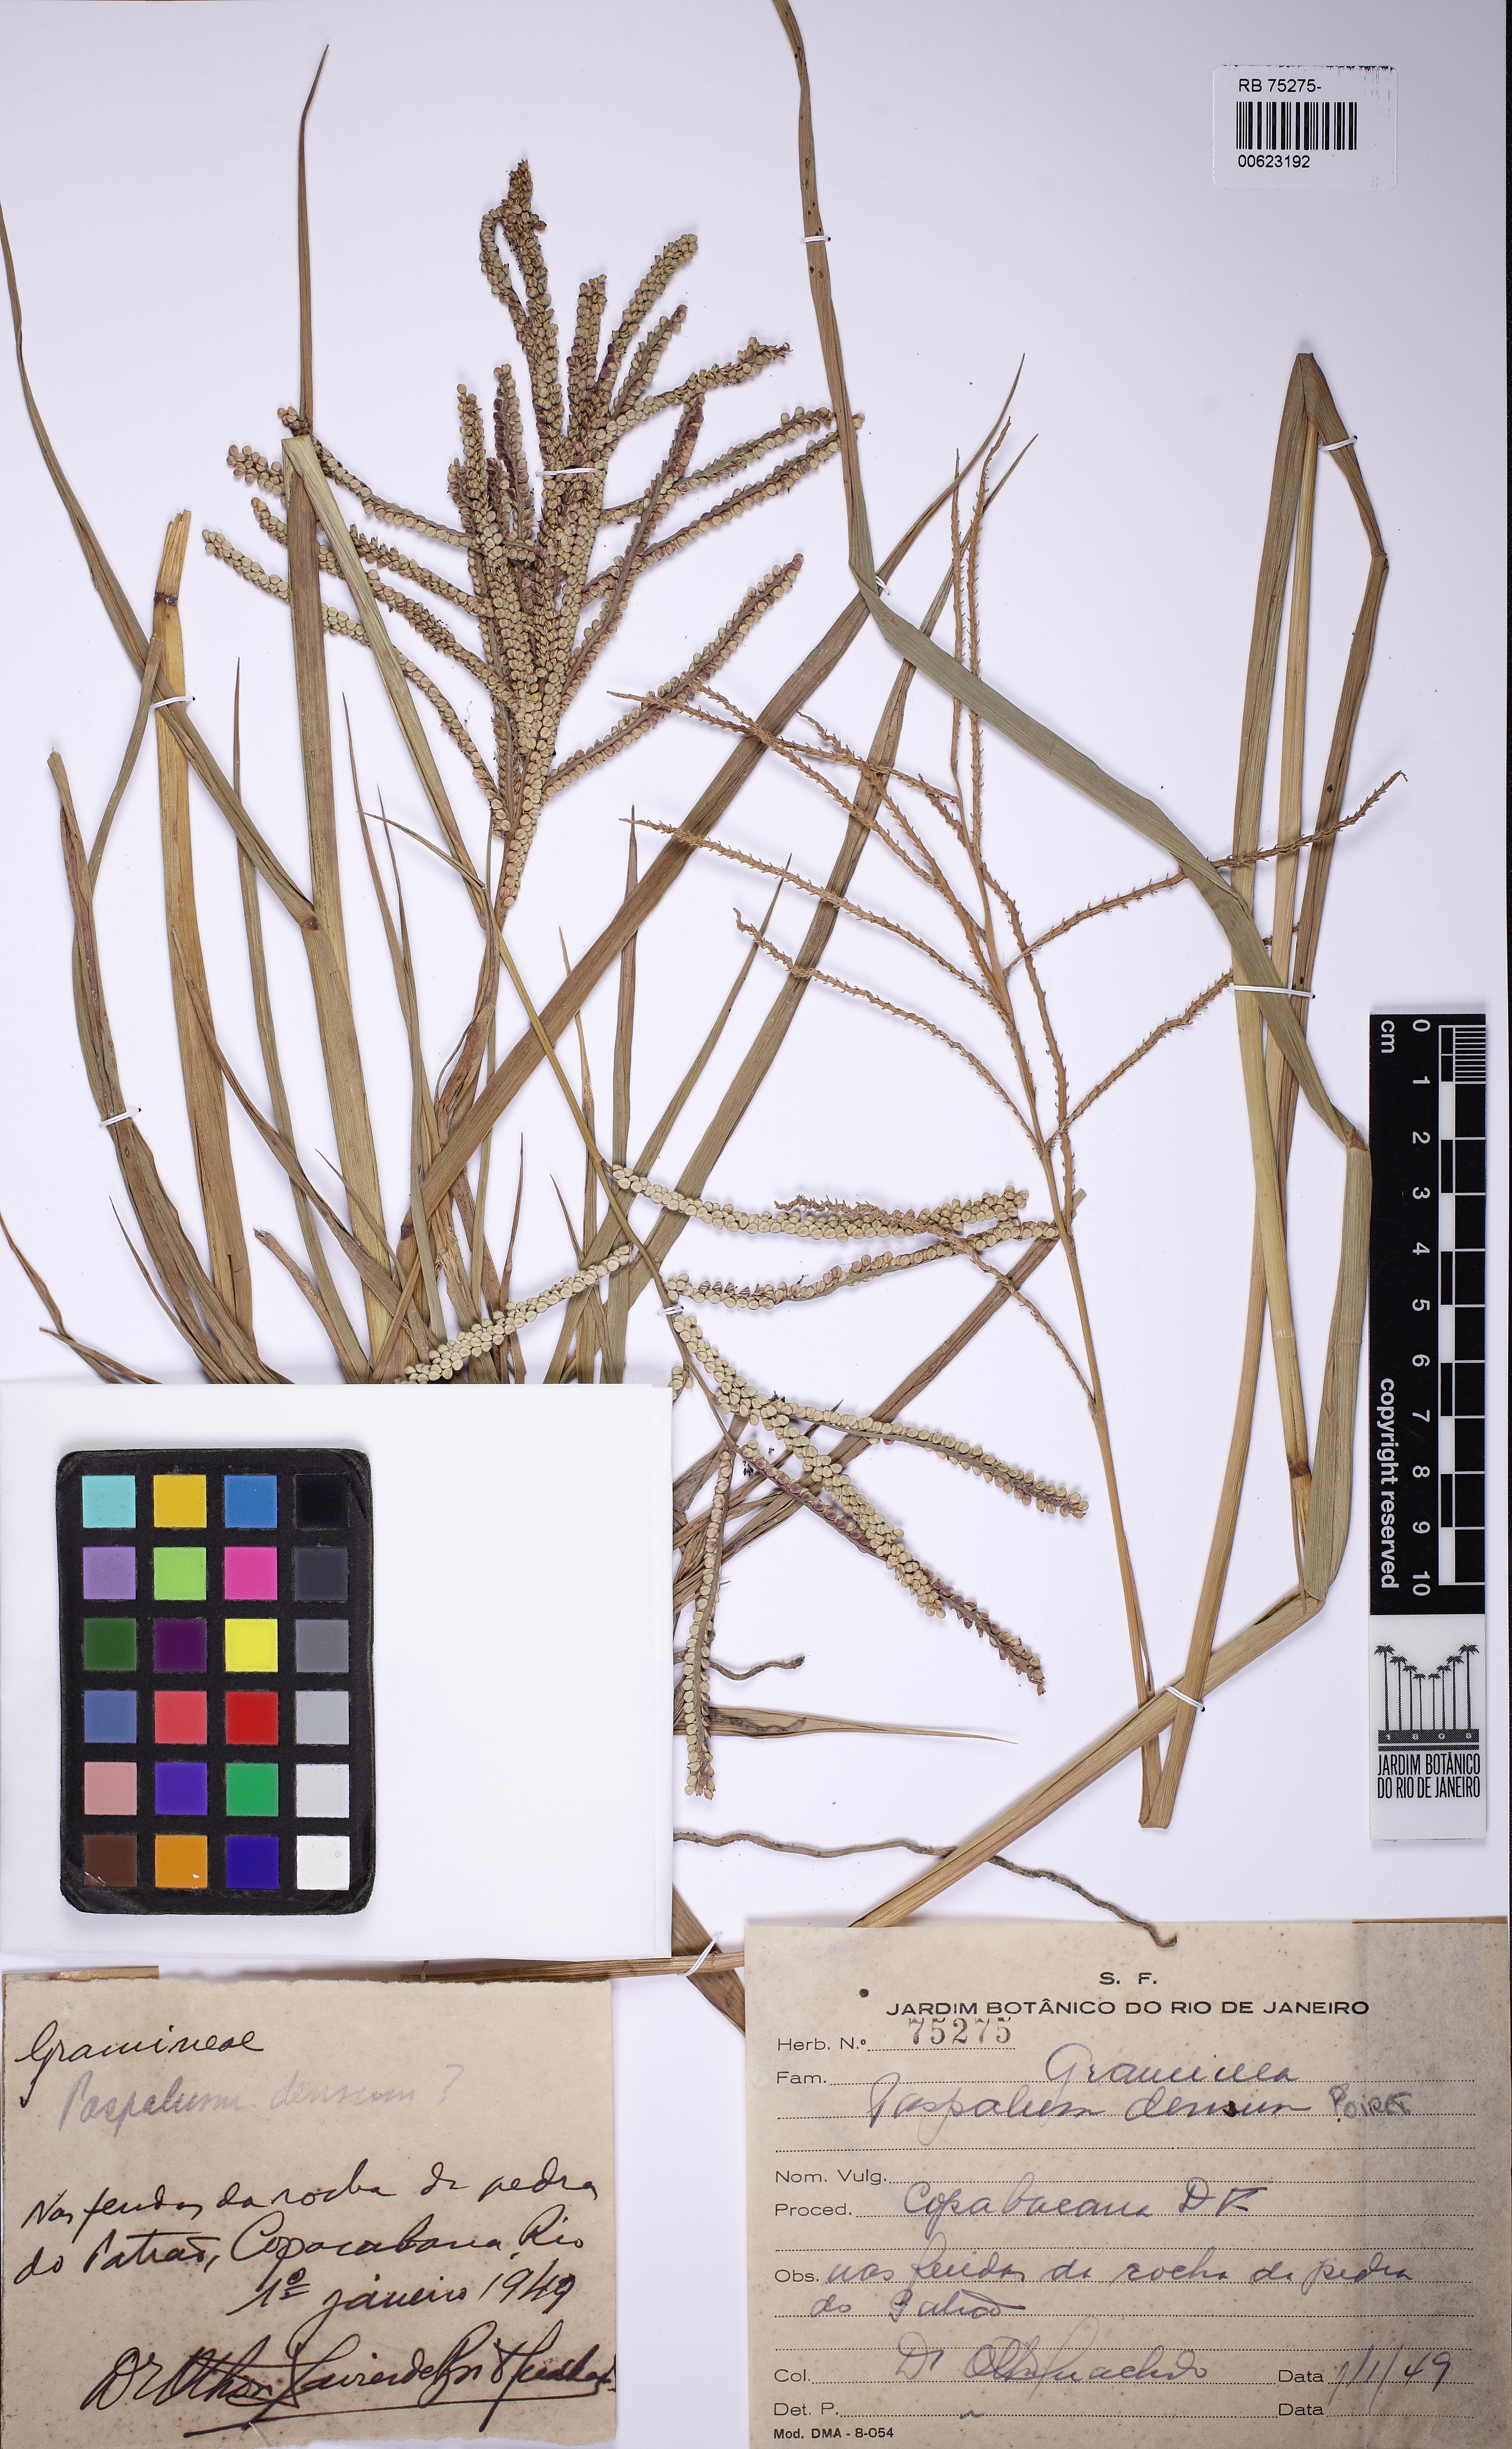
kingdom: Plantae
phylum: Tracheophyta
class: Liliopsida
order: Poales
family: Poaceae
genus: Paspalum
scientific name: Paspalum densum
